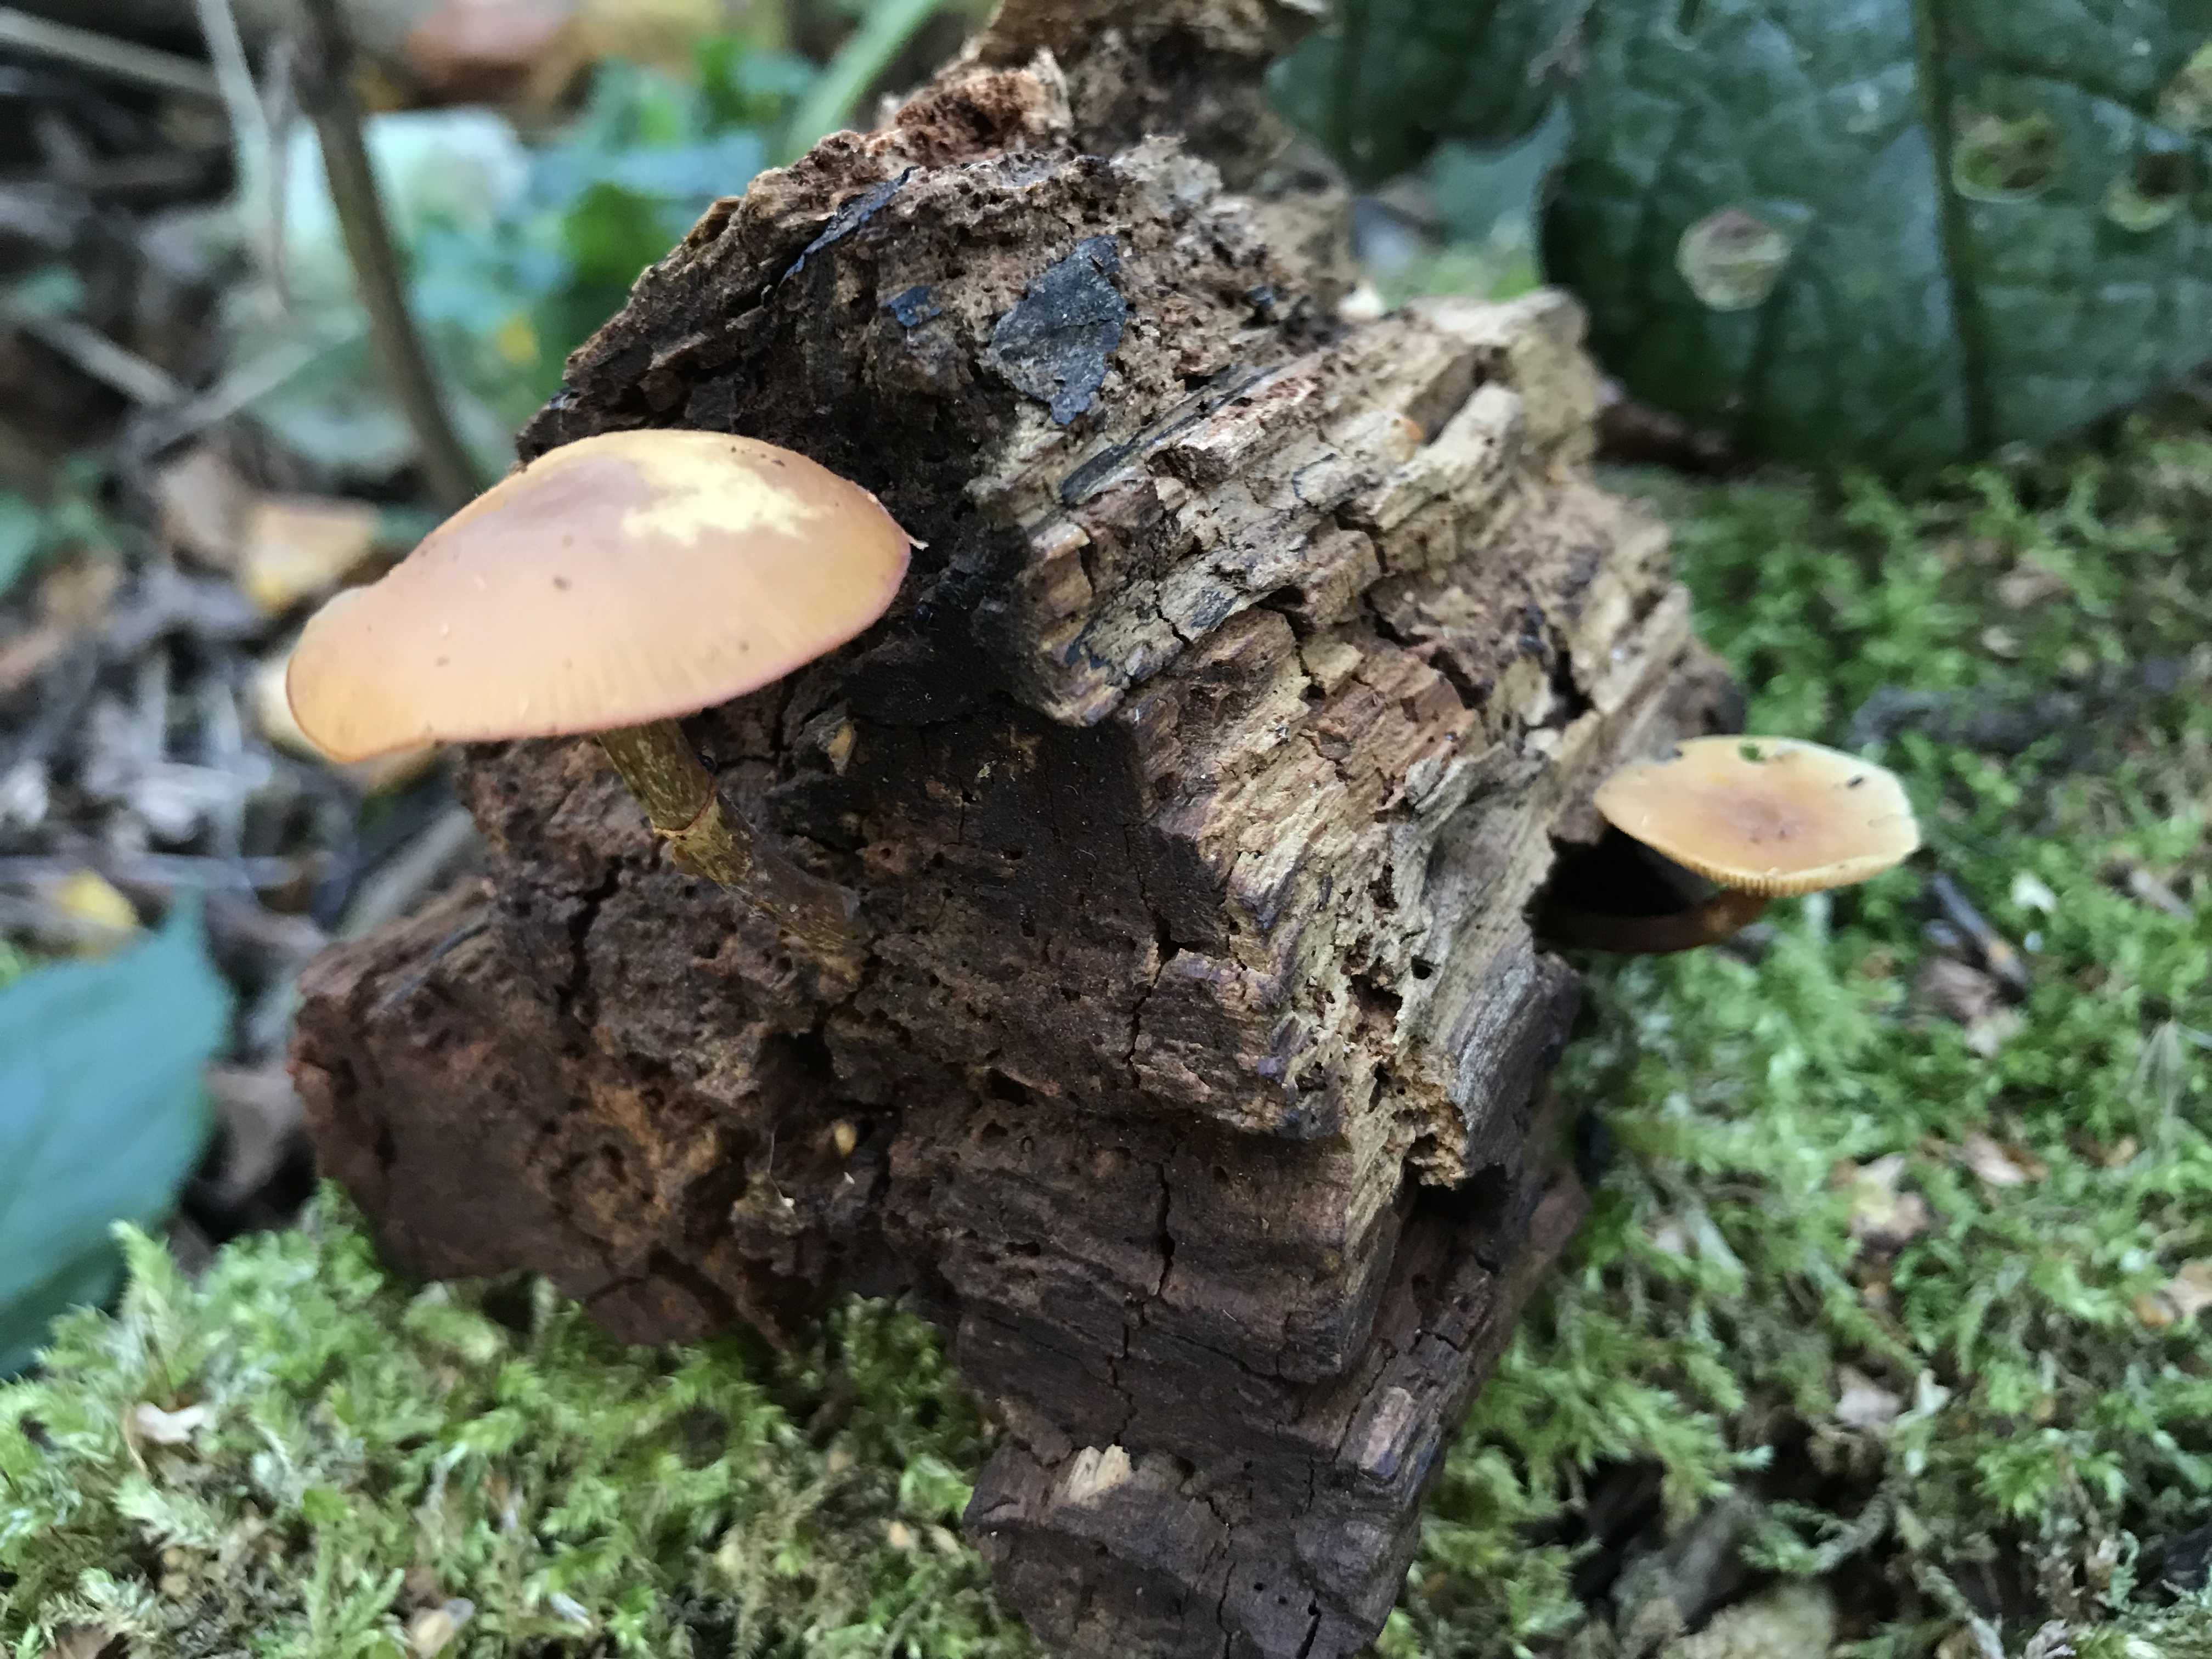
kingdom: Fungi
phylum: Basidiomycota
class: Agaricomycetes
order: Agaricales
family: Hymenogastraceae
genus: Galerina
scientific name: Galerina marginata
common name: randbæltet hjelmhat
